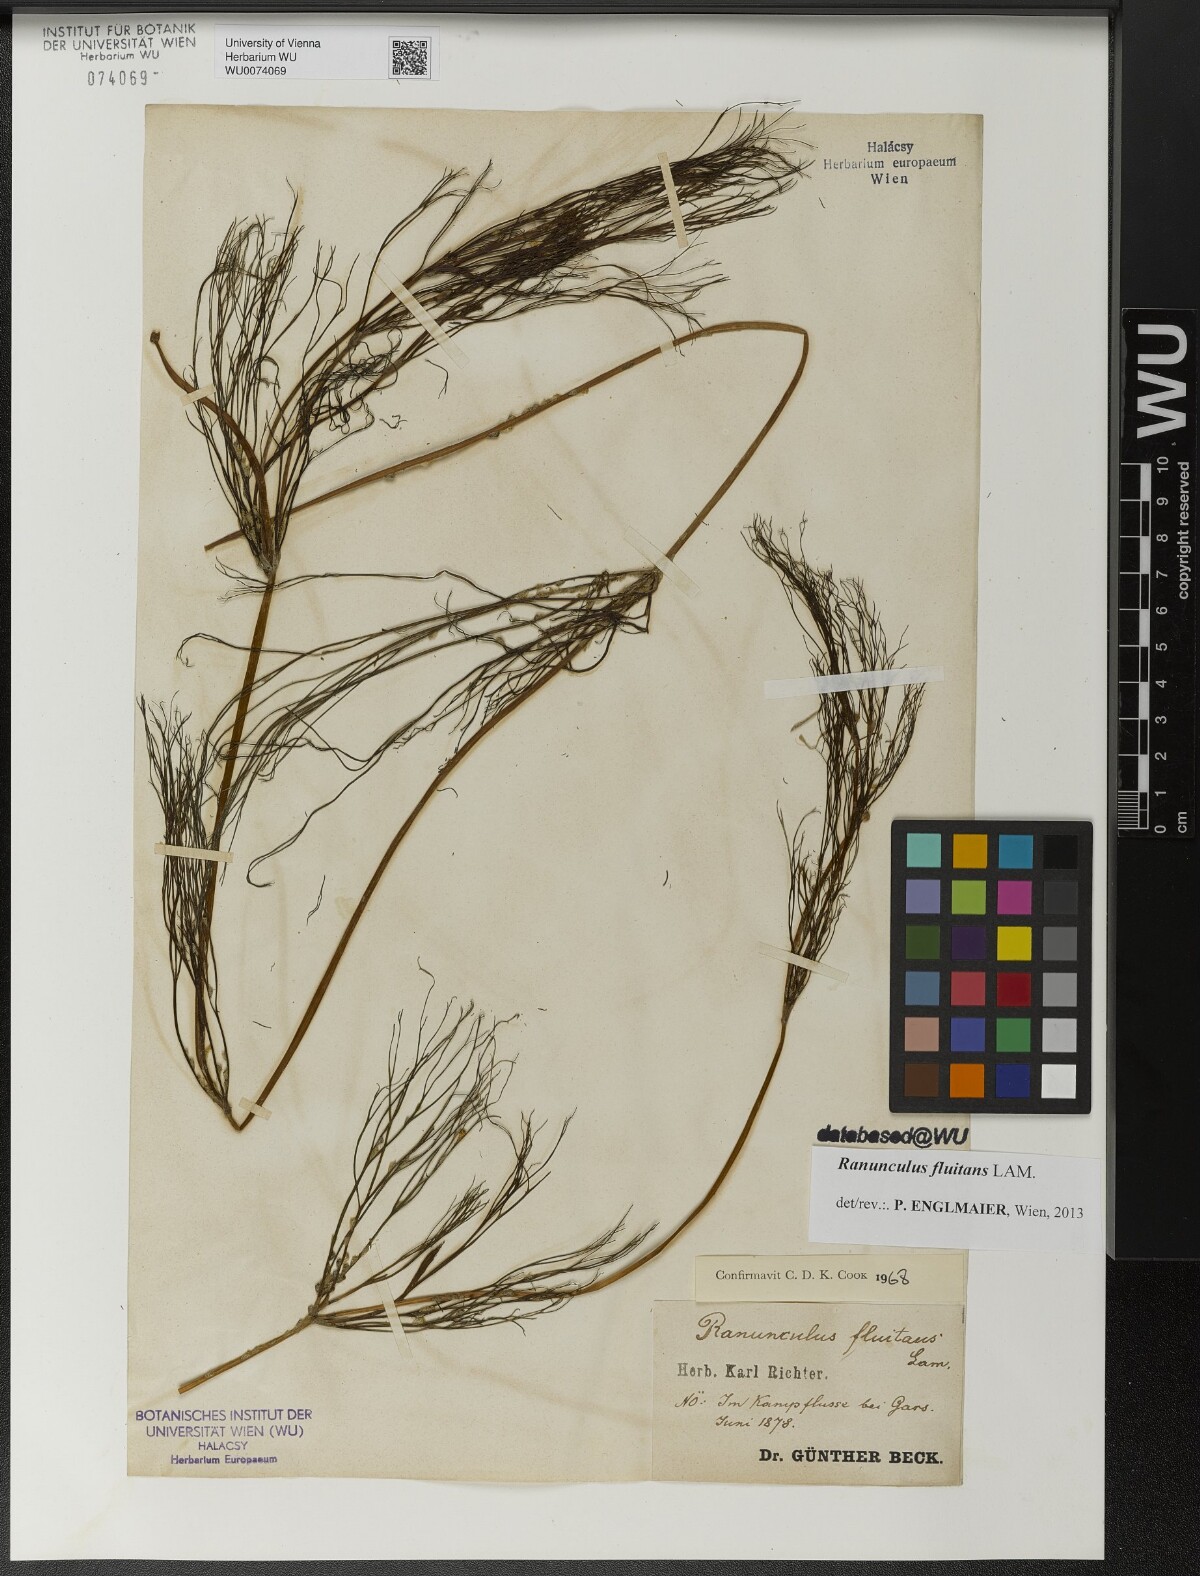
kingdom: Plantae
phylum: Tracheophyta
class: Magnoliopsida
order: Ranunculales
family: Ranunculaceae
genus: Ranunculus
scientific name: Ranunculus fluitans
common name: River water-crowfoot
